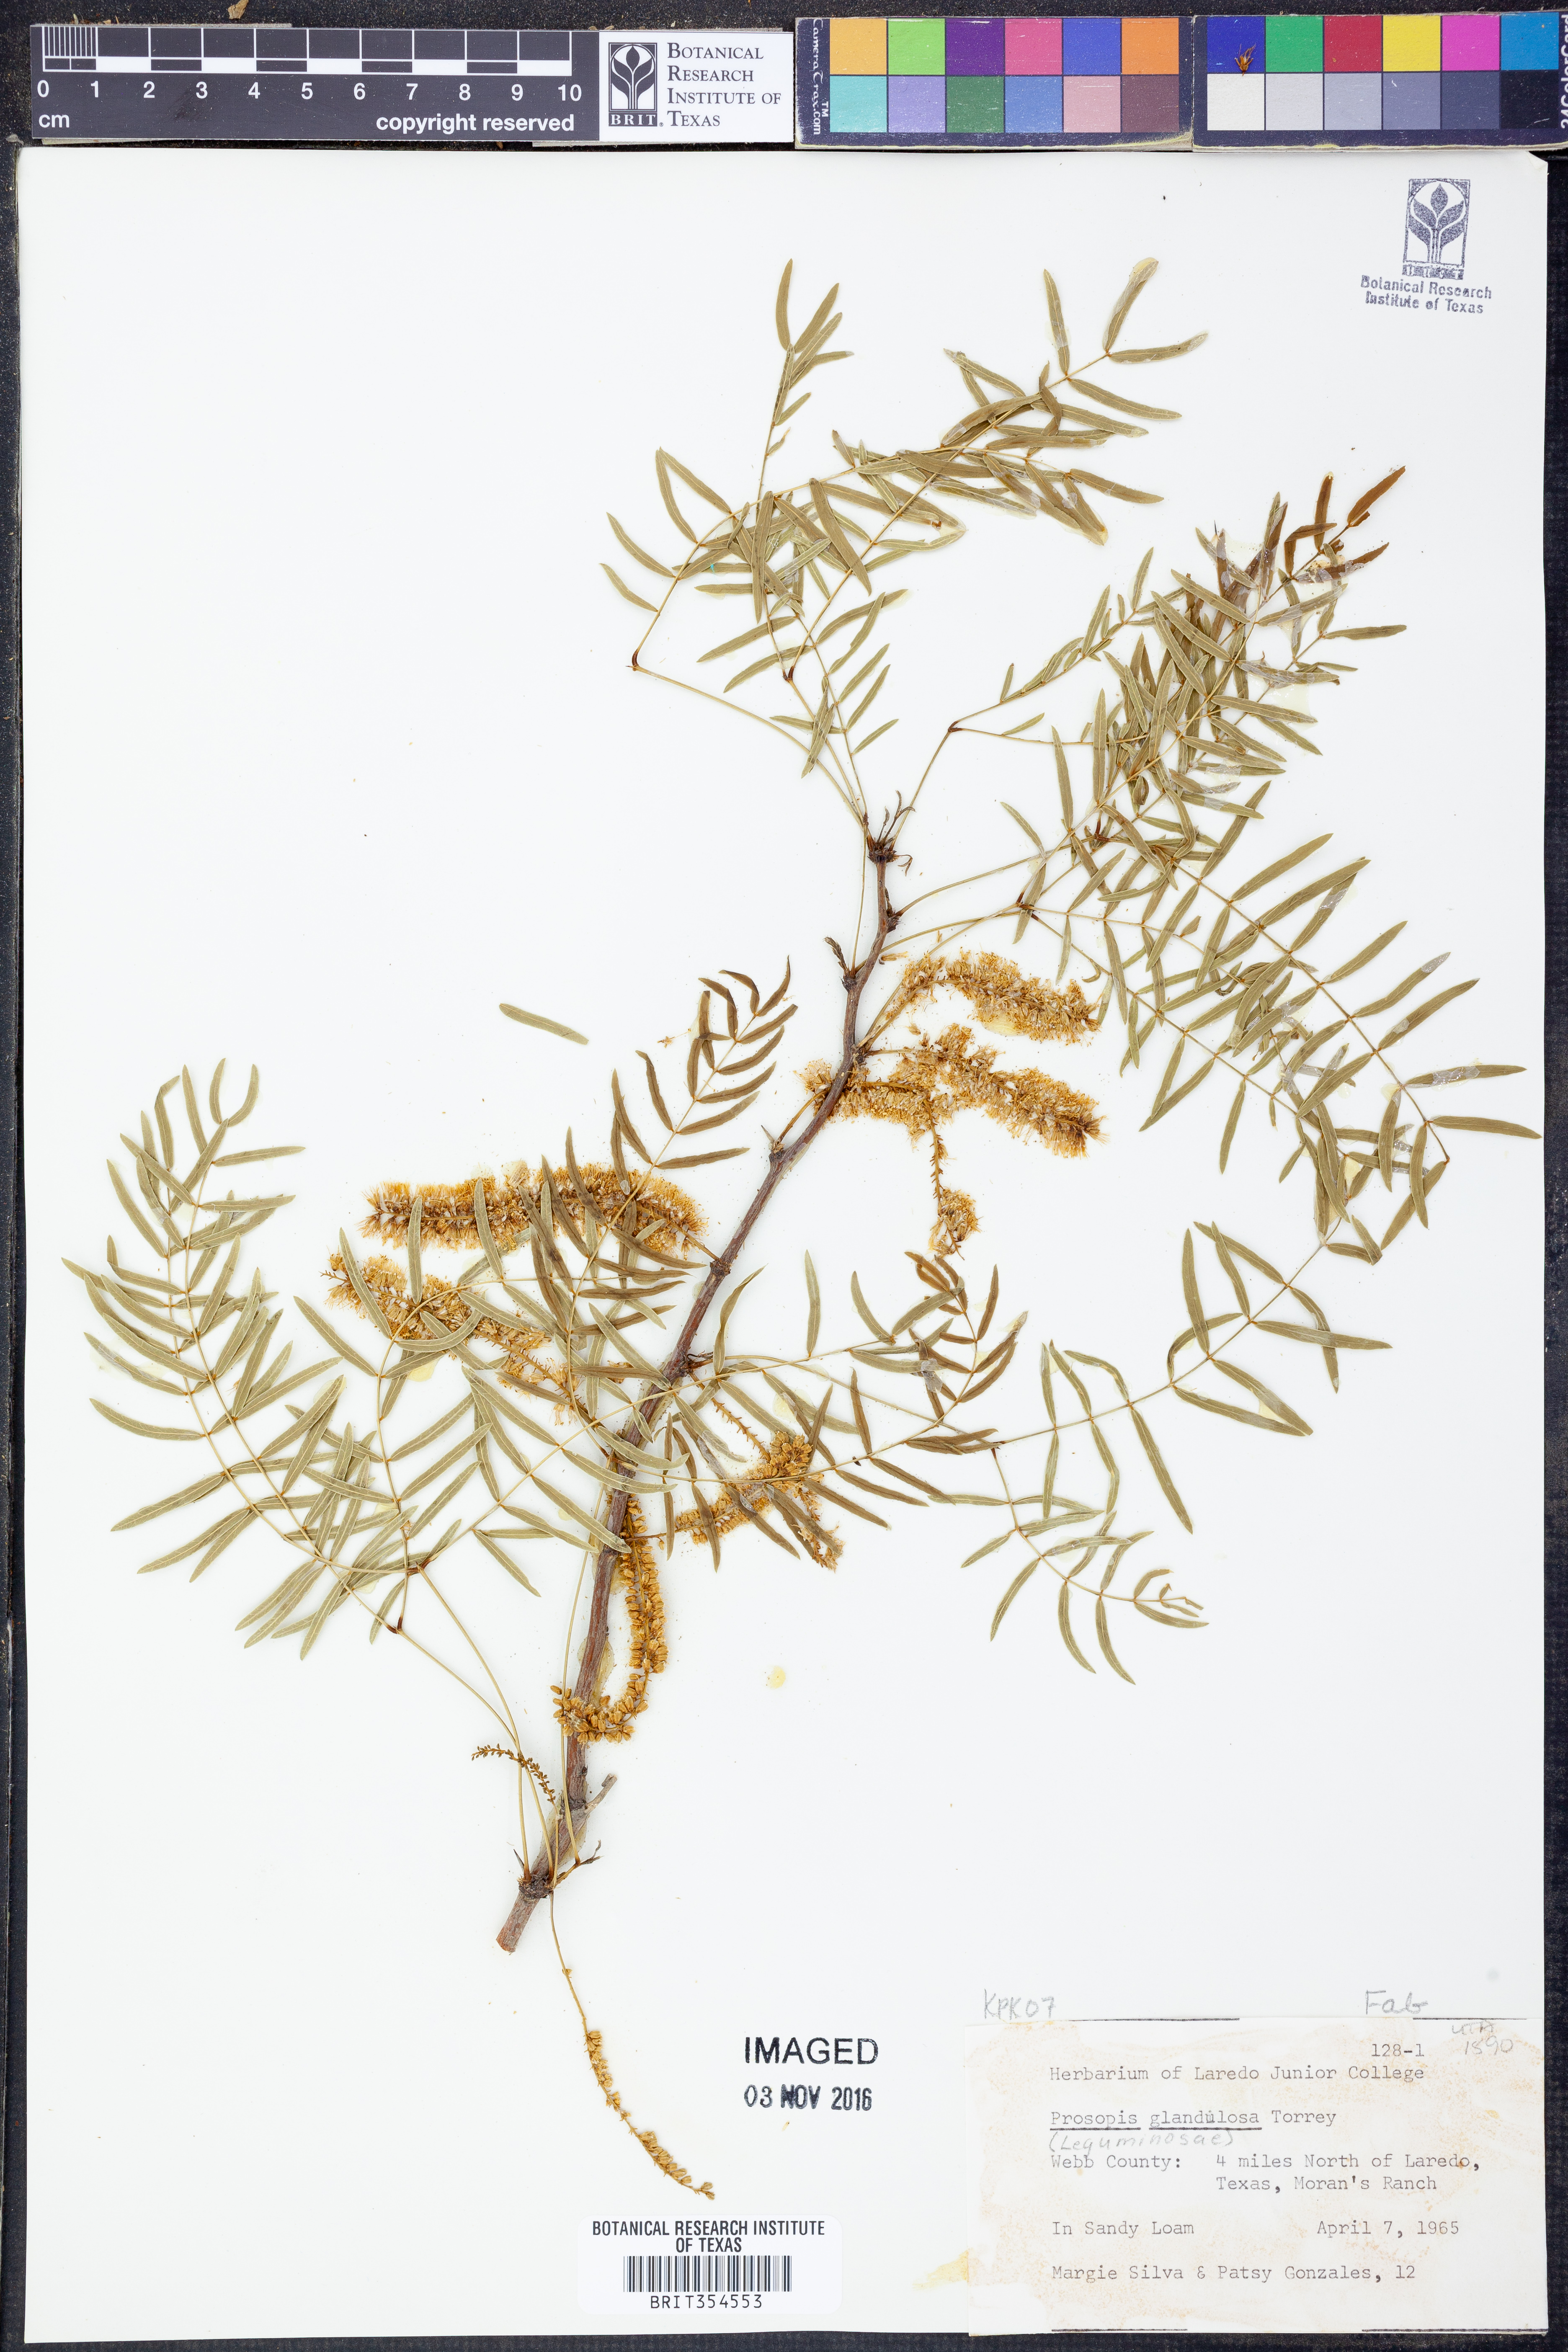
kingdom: Plantae
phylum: Tracheophyta
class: Magnoliopsida
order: Fabales
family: Fabaceae
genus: Prosopis
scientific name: Prosopis glandulosa
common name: Honey mesquite
